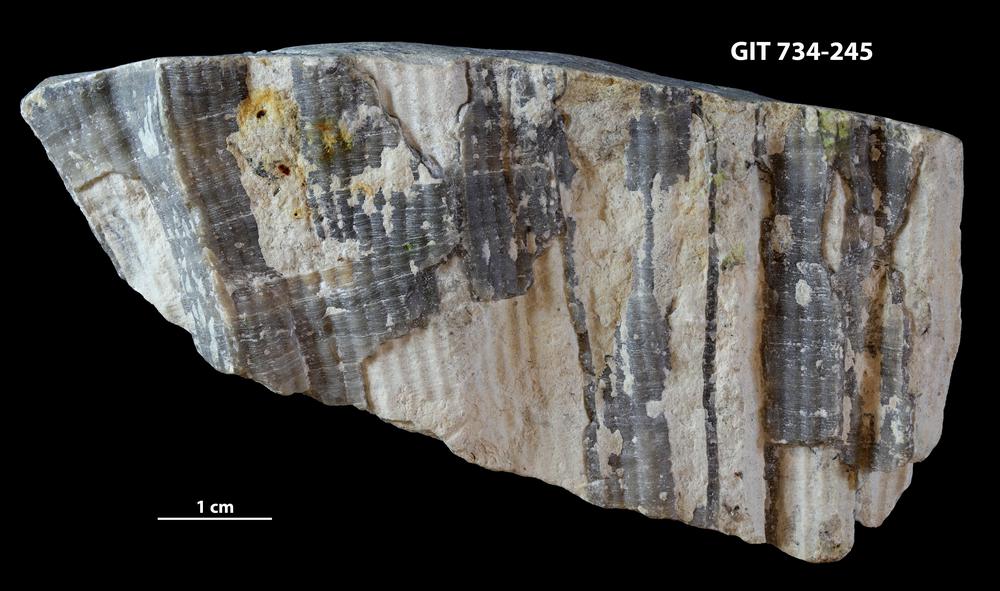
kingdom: Animalia
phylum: Cnidaria
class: Anthozoa
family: Cateniporidae
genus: Catenipora
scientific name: Catenipora
